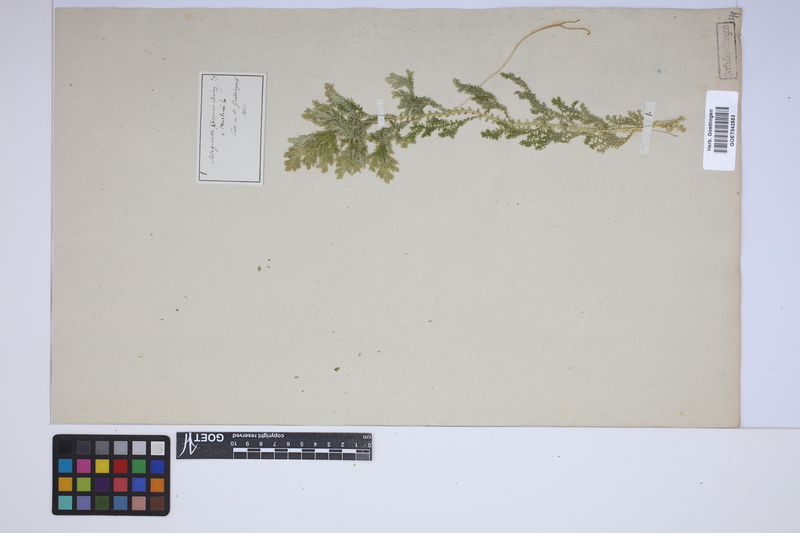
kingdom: Plantae
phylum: Tracheophyta
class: Lycopodiopsida
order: Selaginellales
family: Selaginellaceae
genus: Selaginella
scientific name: Selaginella martensii
